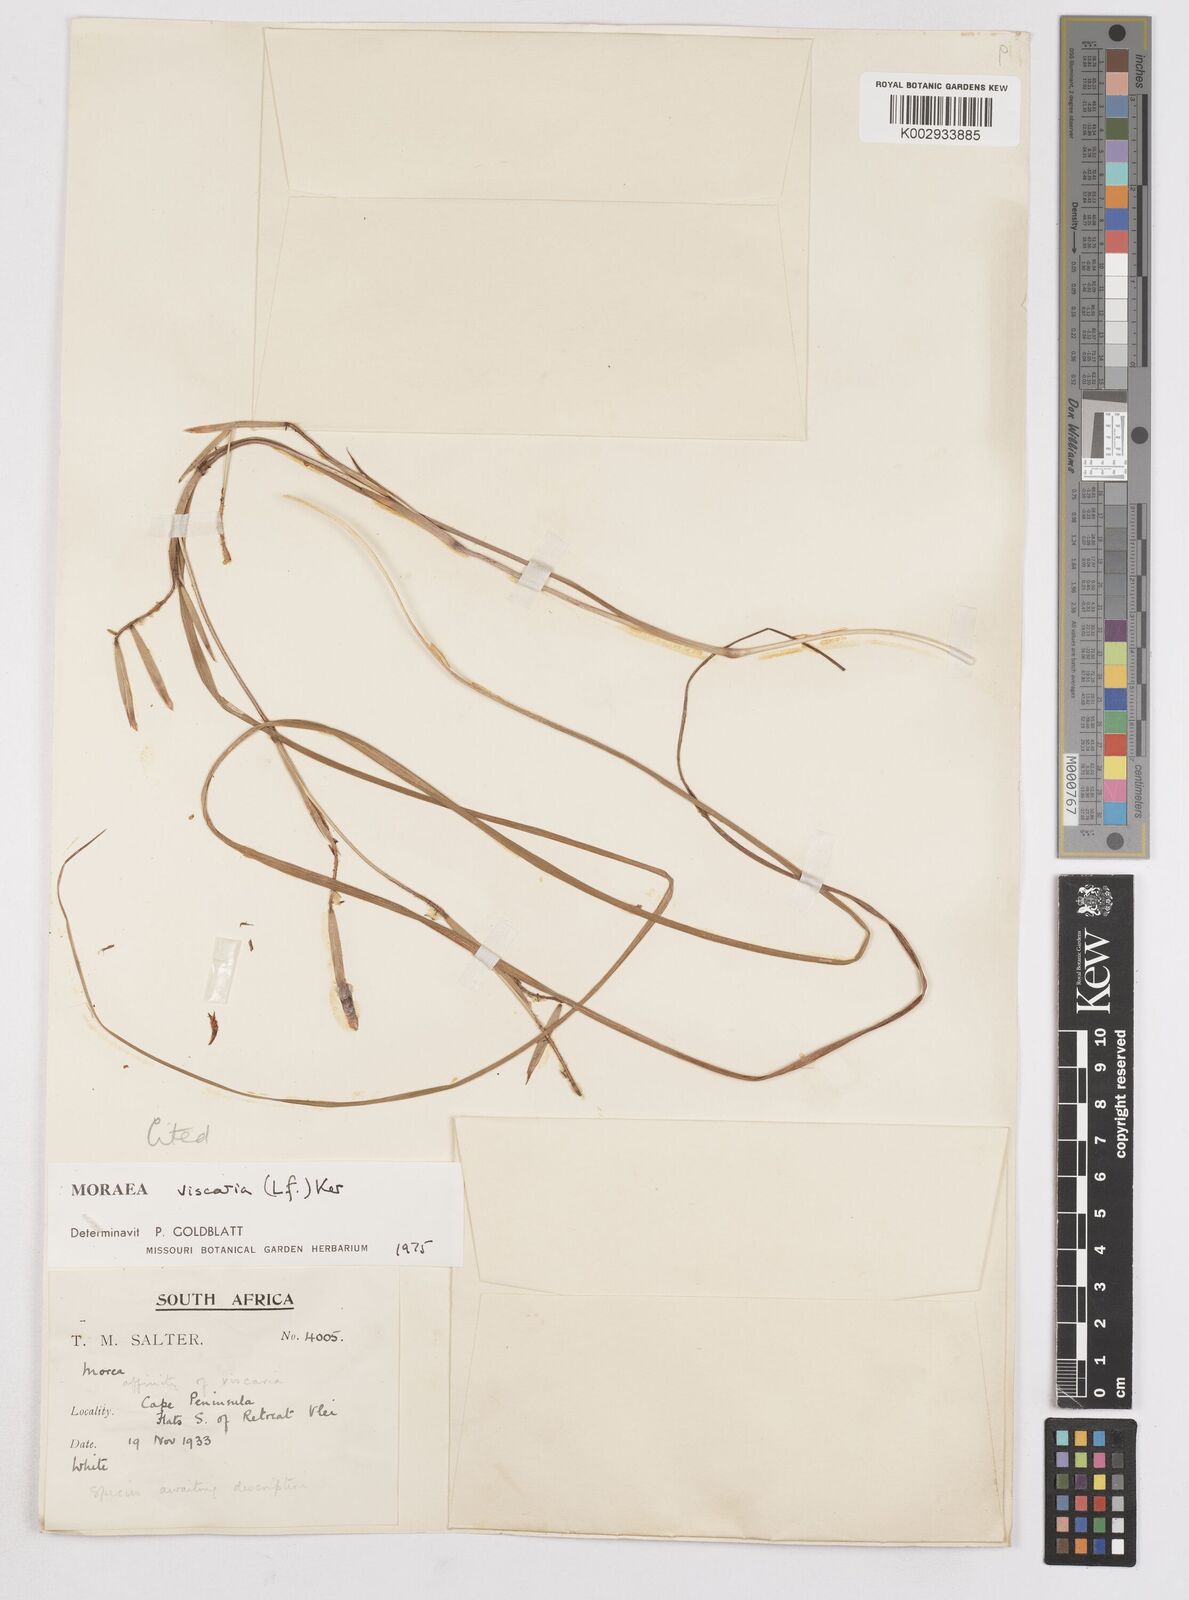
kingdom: Plantae
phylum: Tracheophyta
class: Liliopsida
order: Asparagales
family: Iridaceae
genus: Moraea
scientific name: Moraea viscaria
